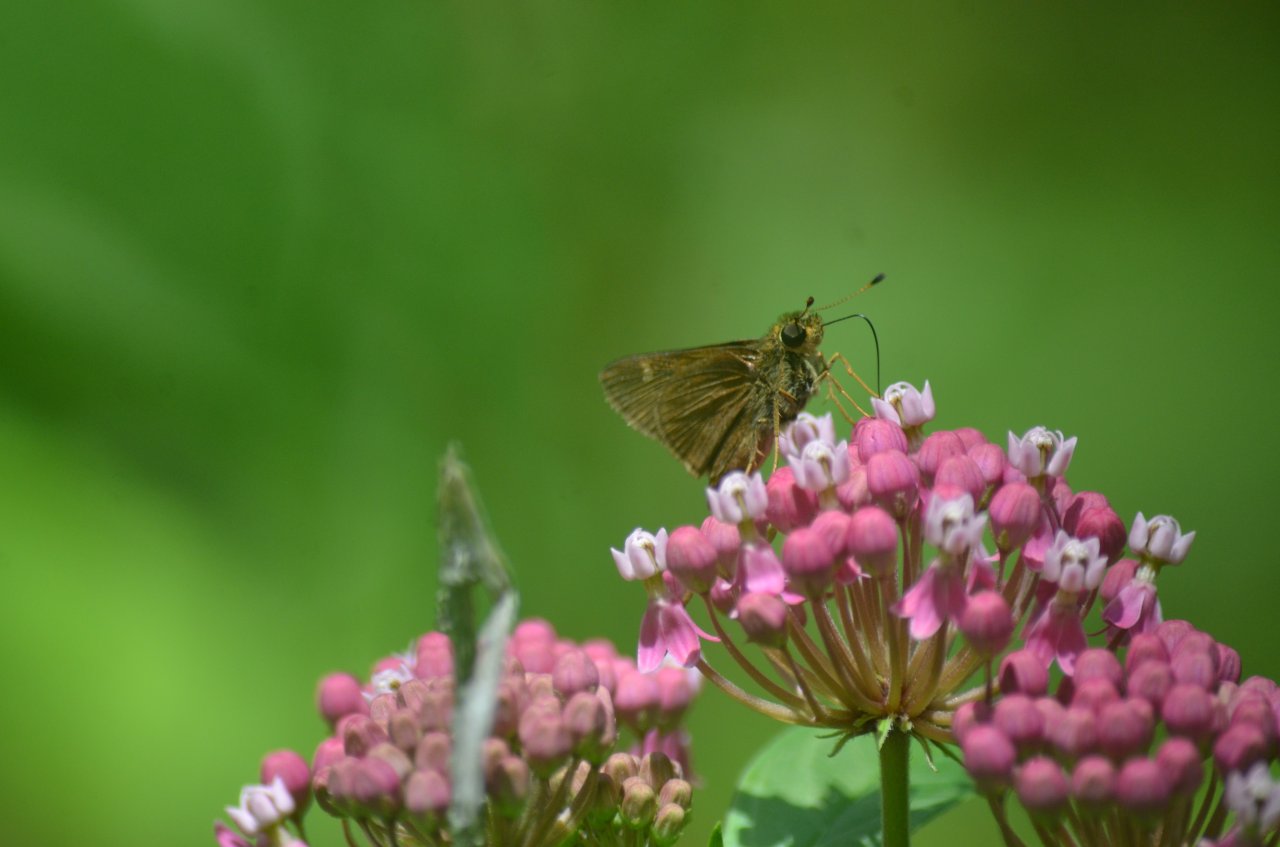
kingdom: Animalia
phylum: Arthropoda
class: Insecta
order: Lepidoptera
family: Hesperiidae
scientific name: Hesperiidae
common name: Skippers
